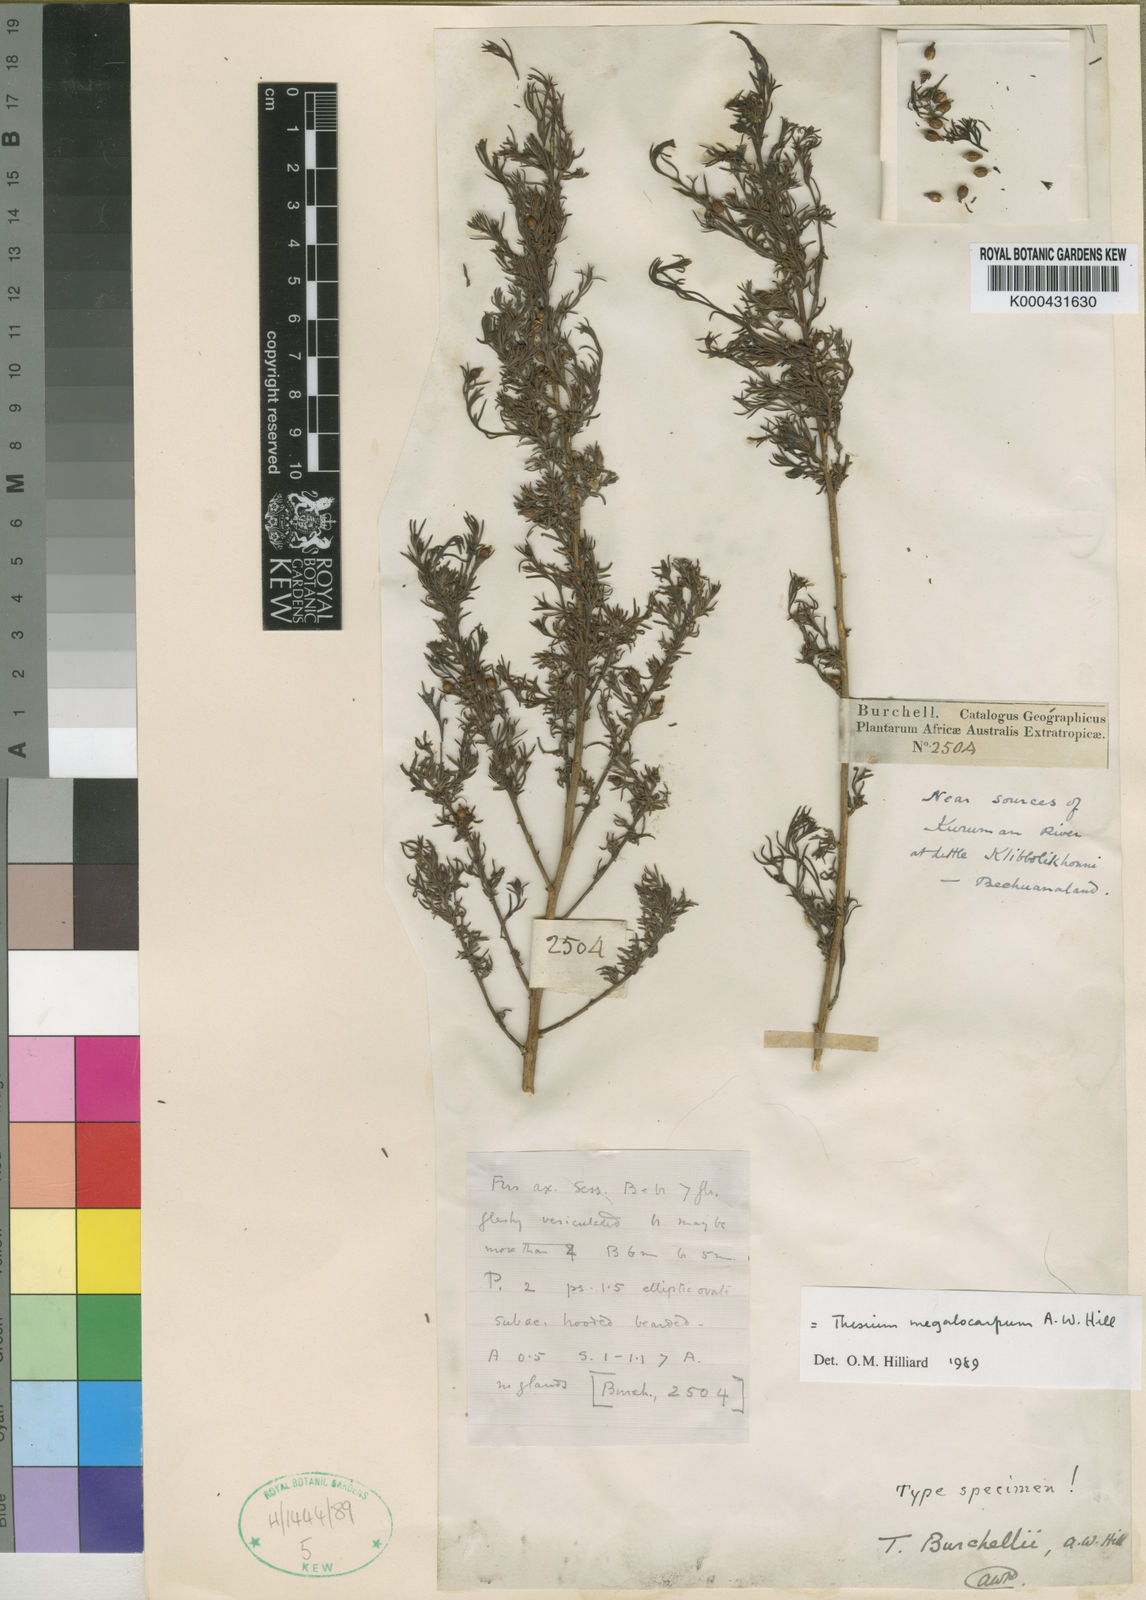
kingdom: Plantae
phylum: Tracheophyta
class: Magnoliopsida
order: Santalales
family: Thesiaceae
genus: Thesium
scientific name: Thesium burchellii
